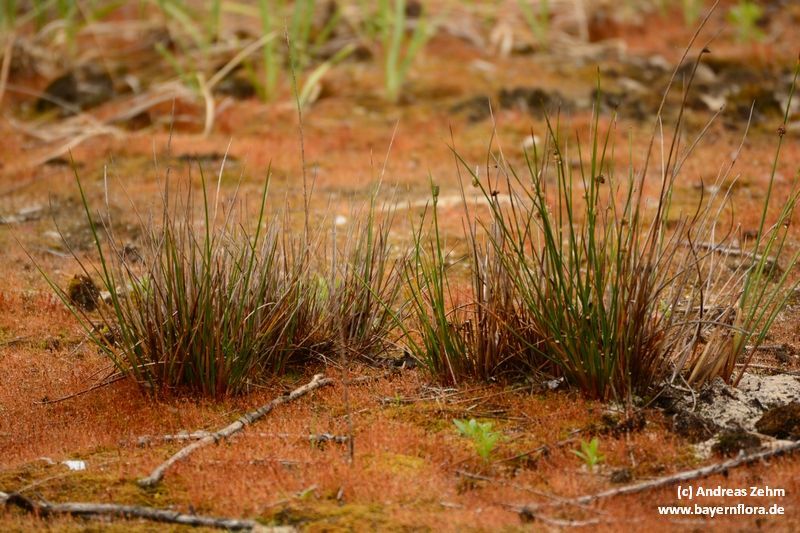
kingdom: Plantae
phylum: Tracheophyta
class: Liliopsida
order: Poales
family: Juncaceae
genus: Juncus
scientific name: Juncus conglomeratus
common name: Compact rush
